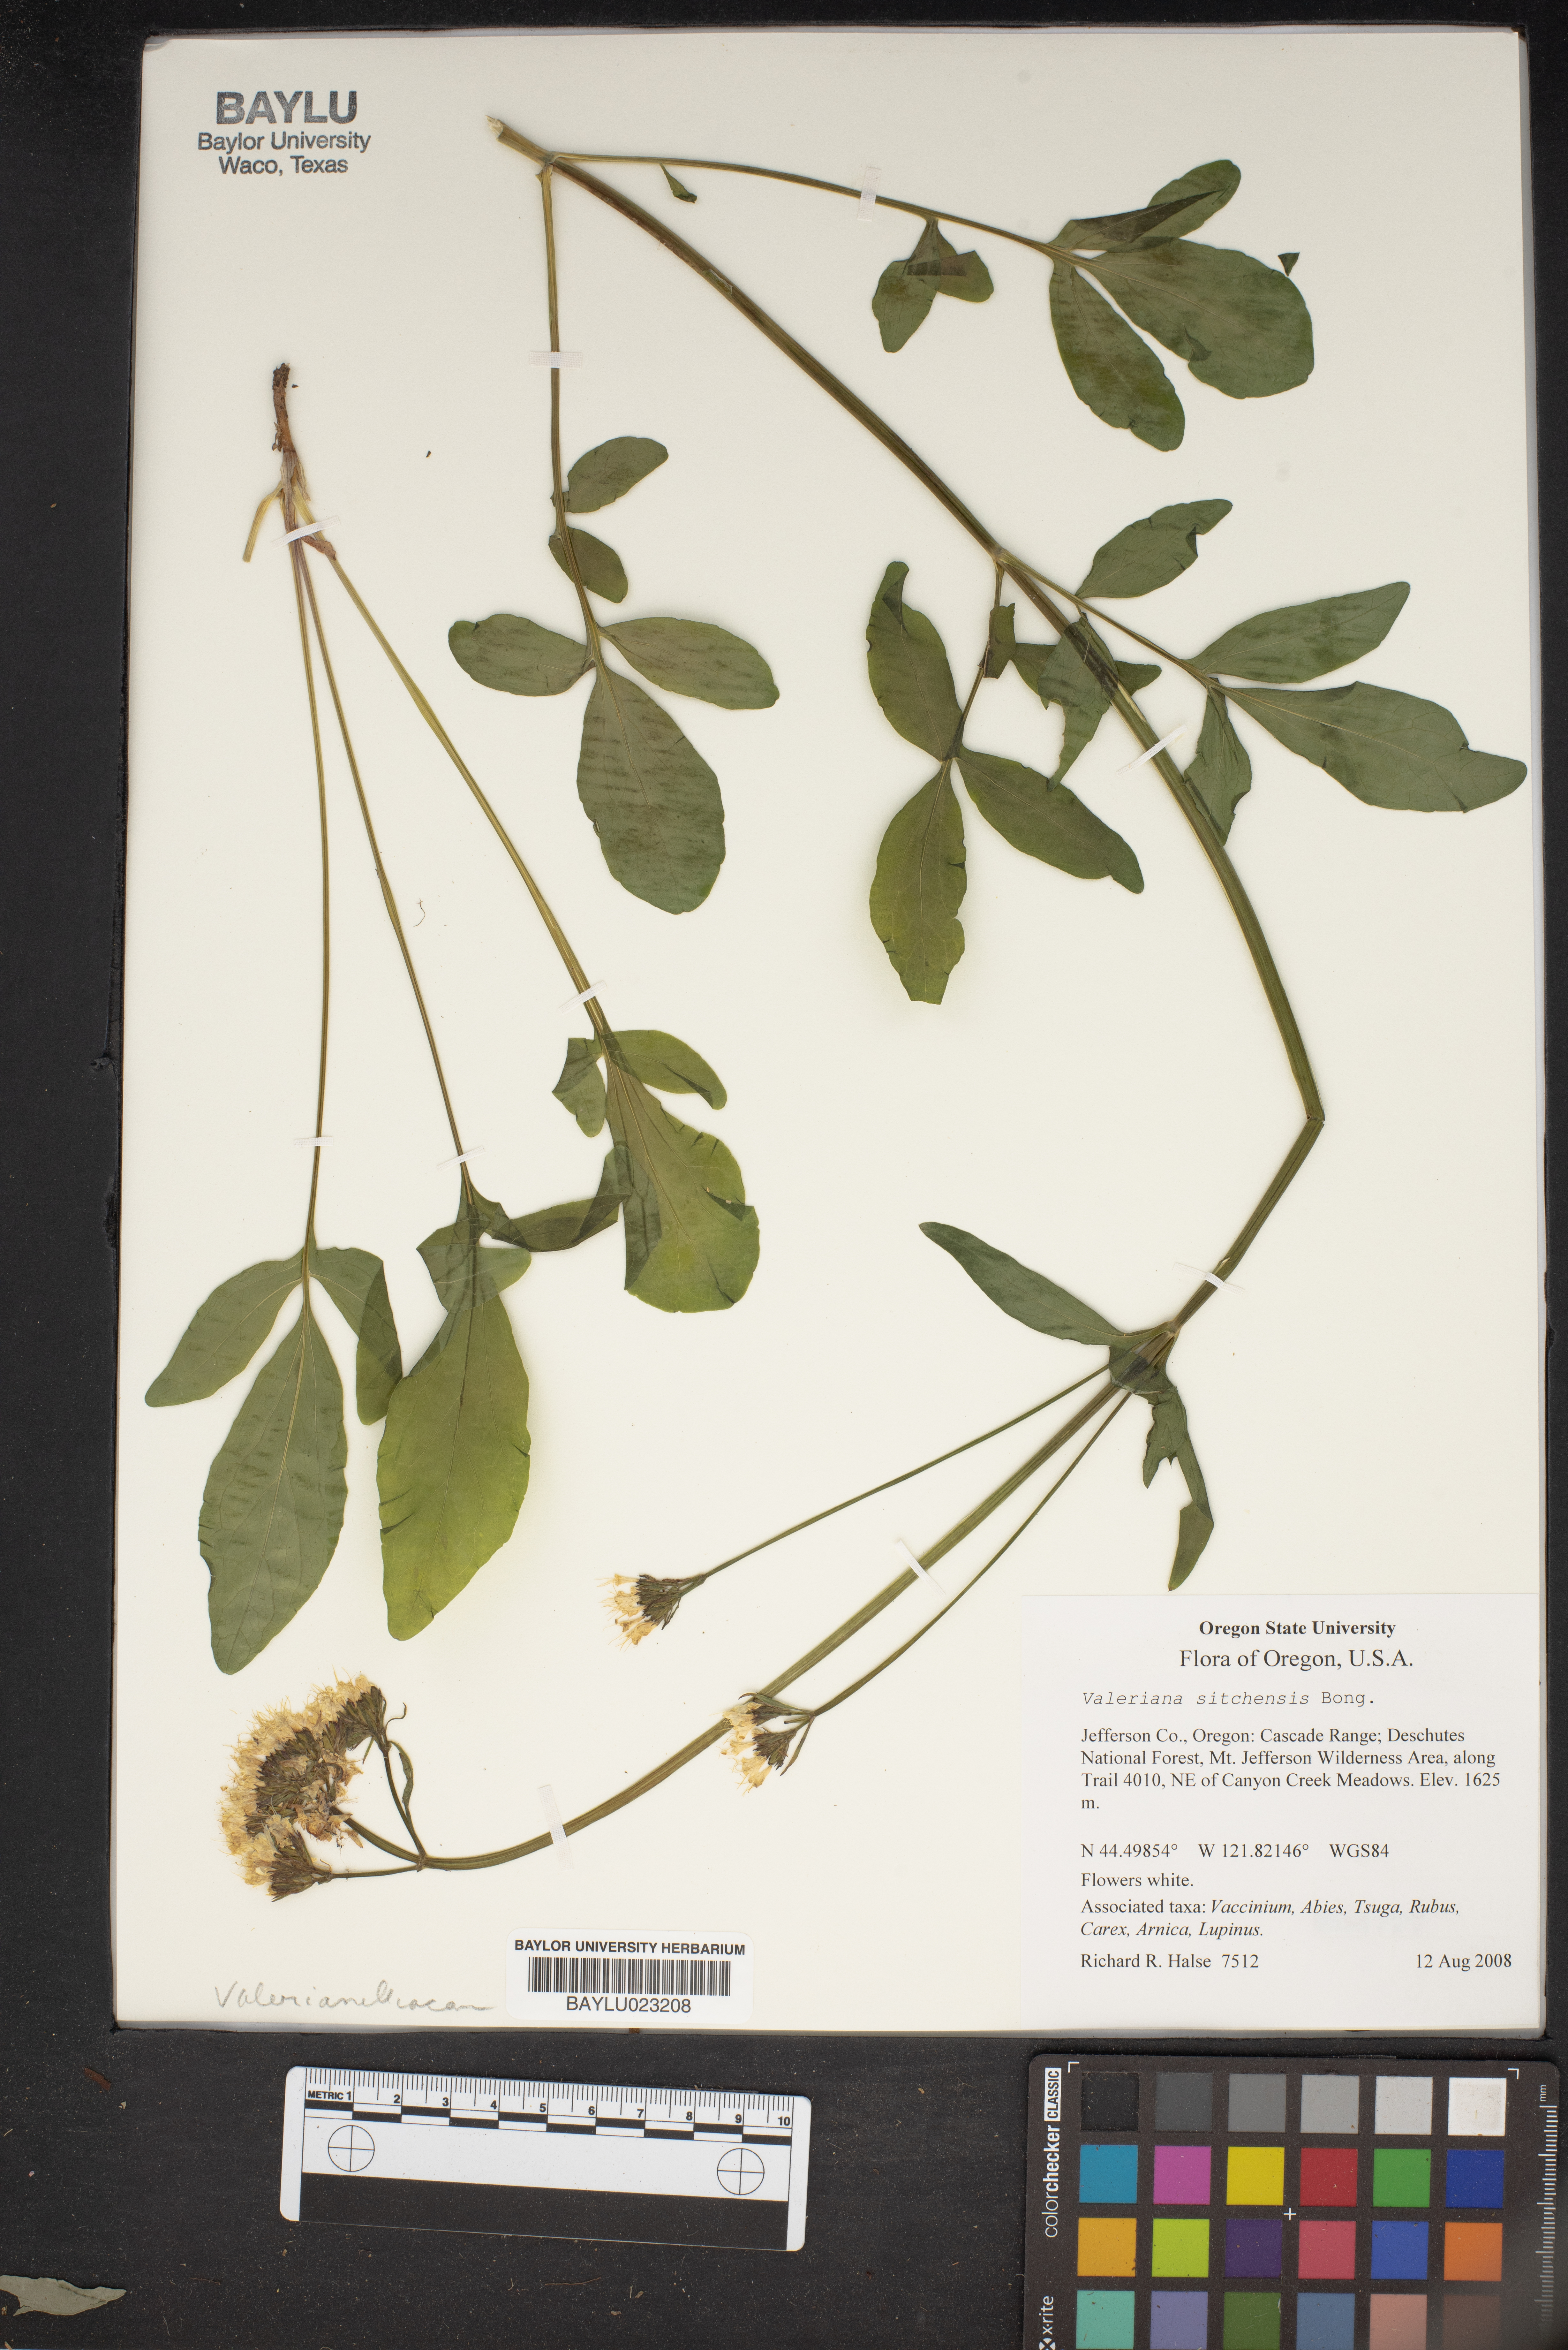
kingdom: Plantae
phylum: Tracheophyta
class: Magnoliopsida
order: Dipsacales
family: Caprifoliaceae
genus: Valeriana
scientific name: Valeriana sitchensis
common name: Pacific valerian
